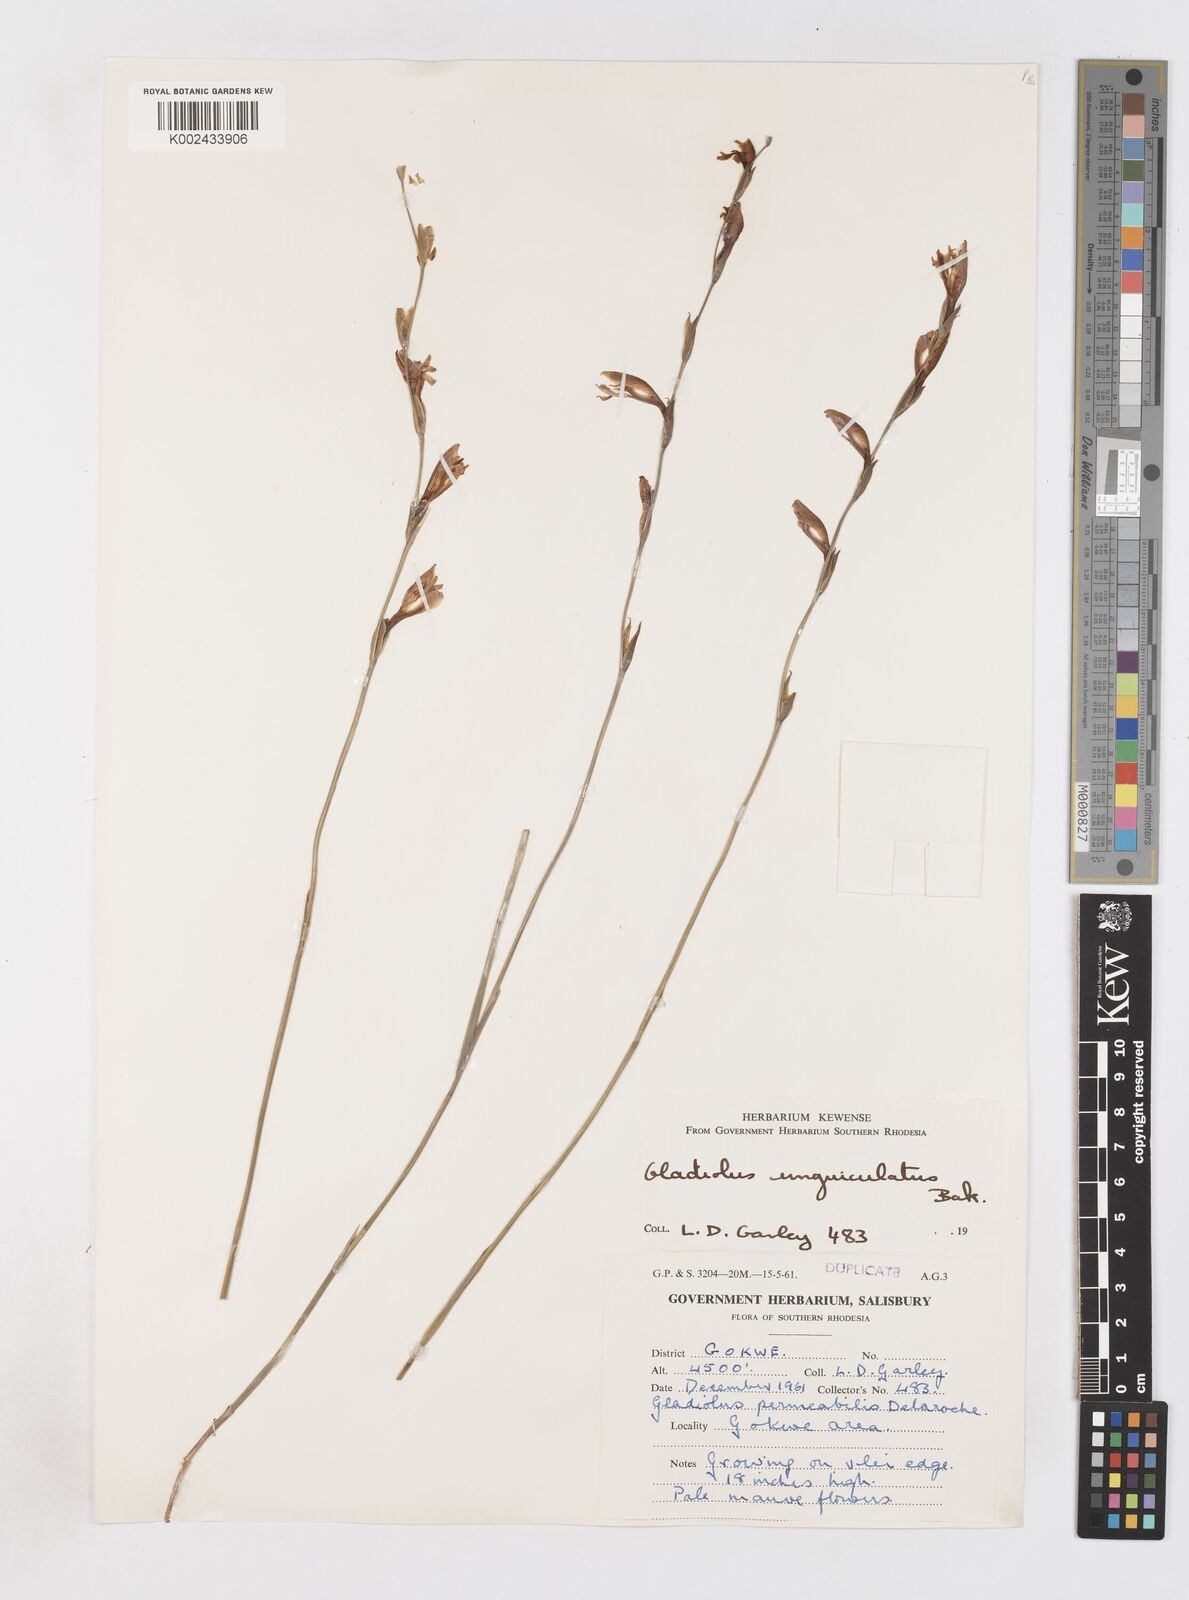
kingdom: Plantae
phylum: Tracheophyta
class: Liliopsida
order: Asparagales
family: Iridaceae
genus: Gladiolus
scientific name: Gladiolus unguiculatus
